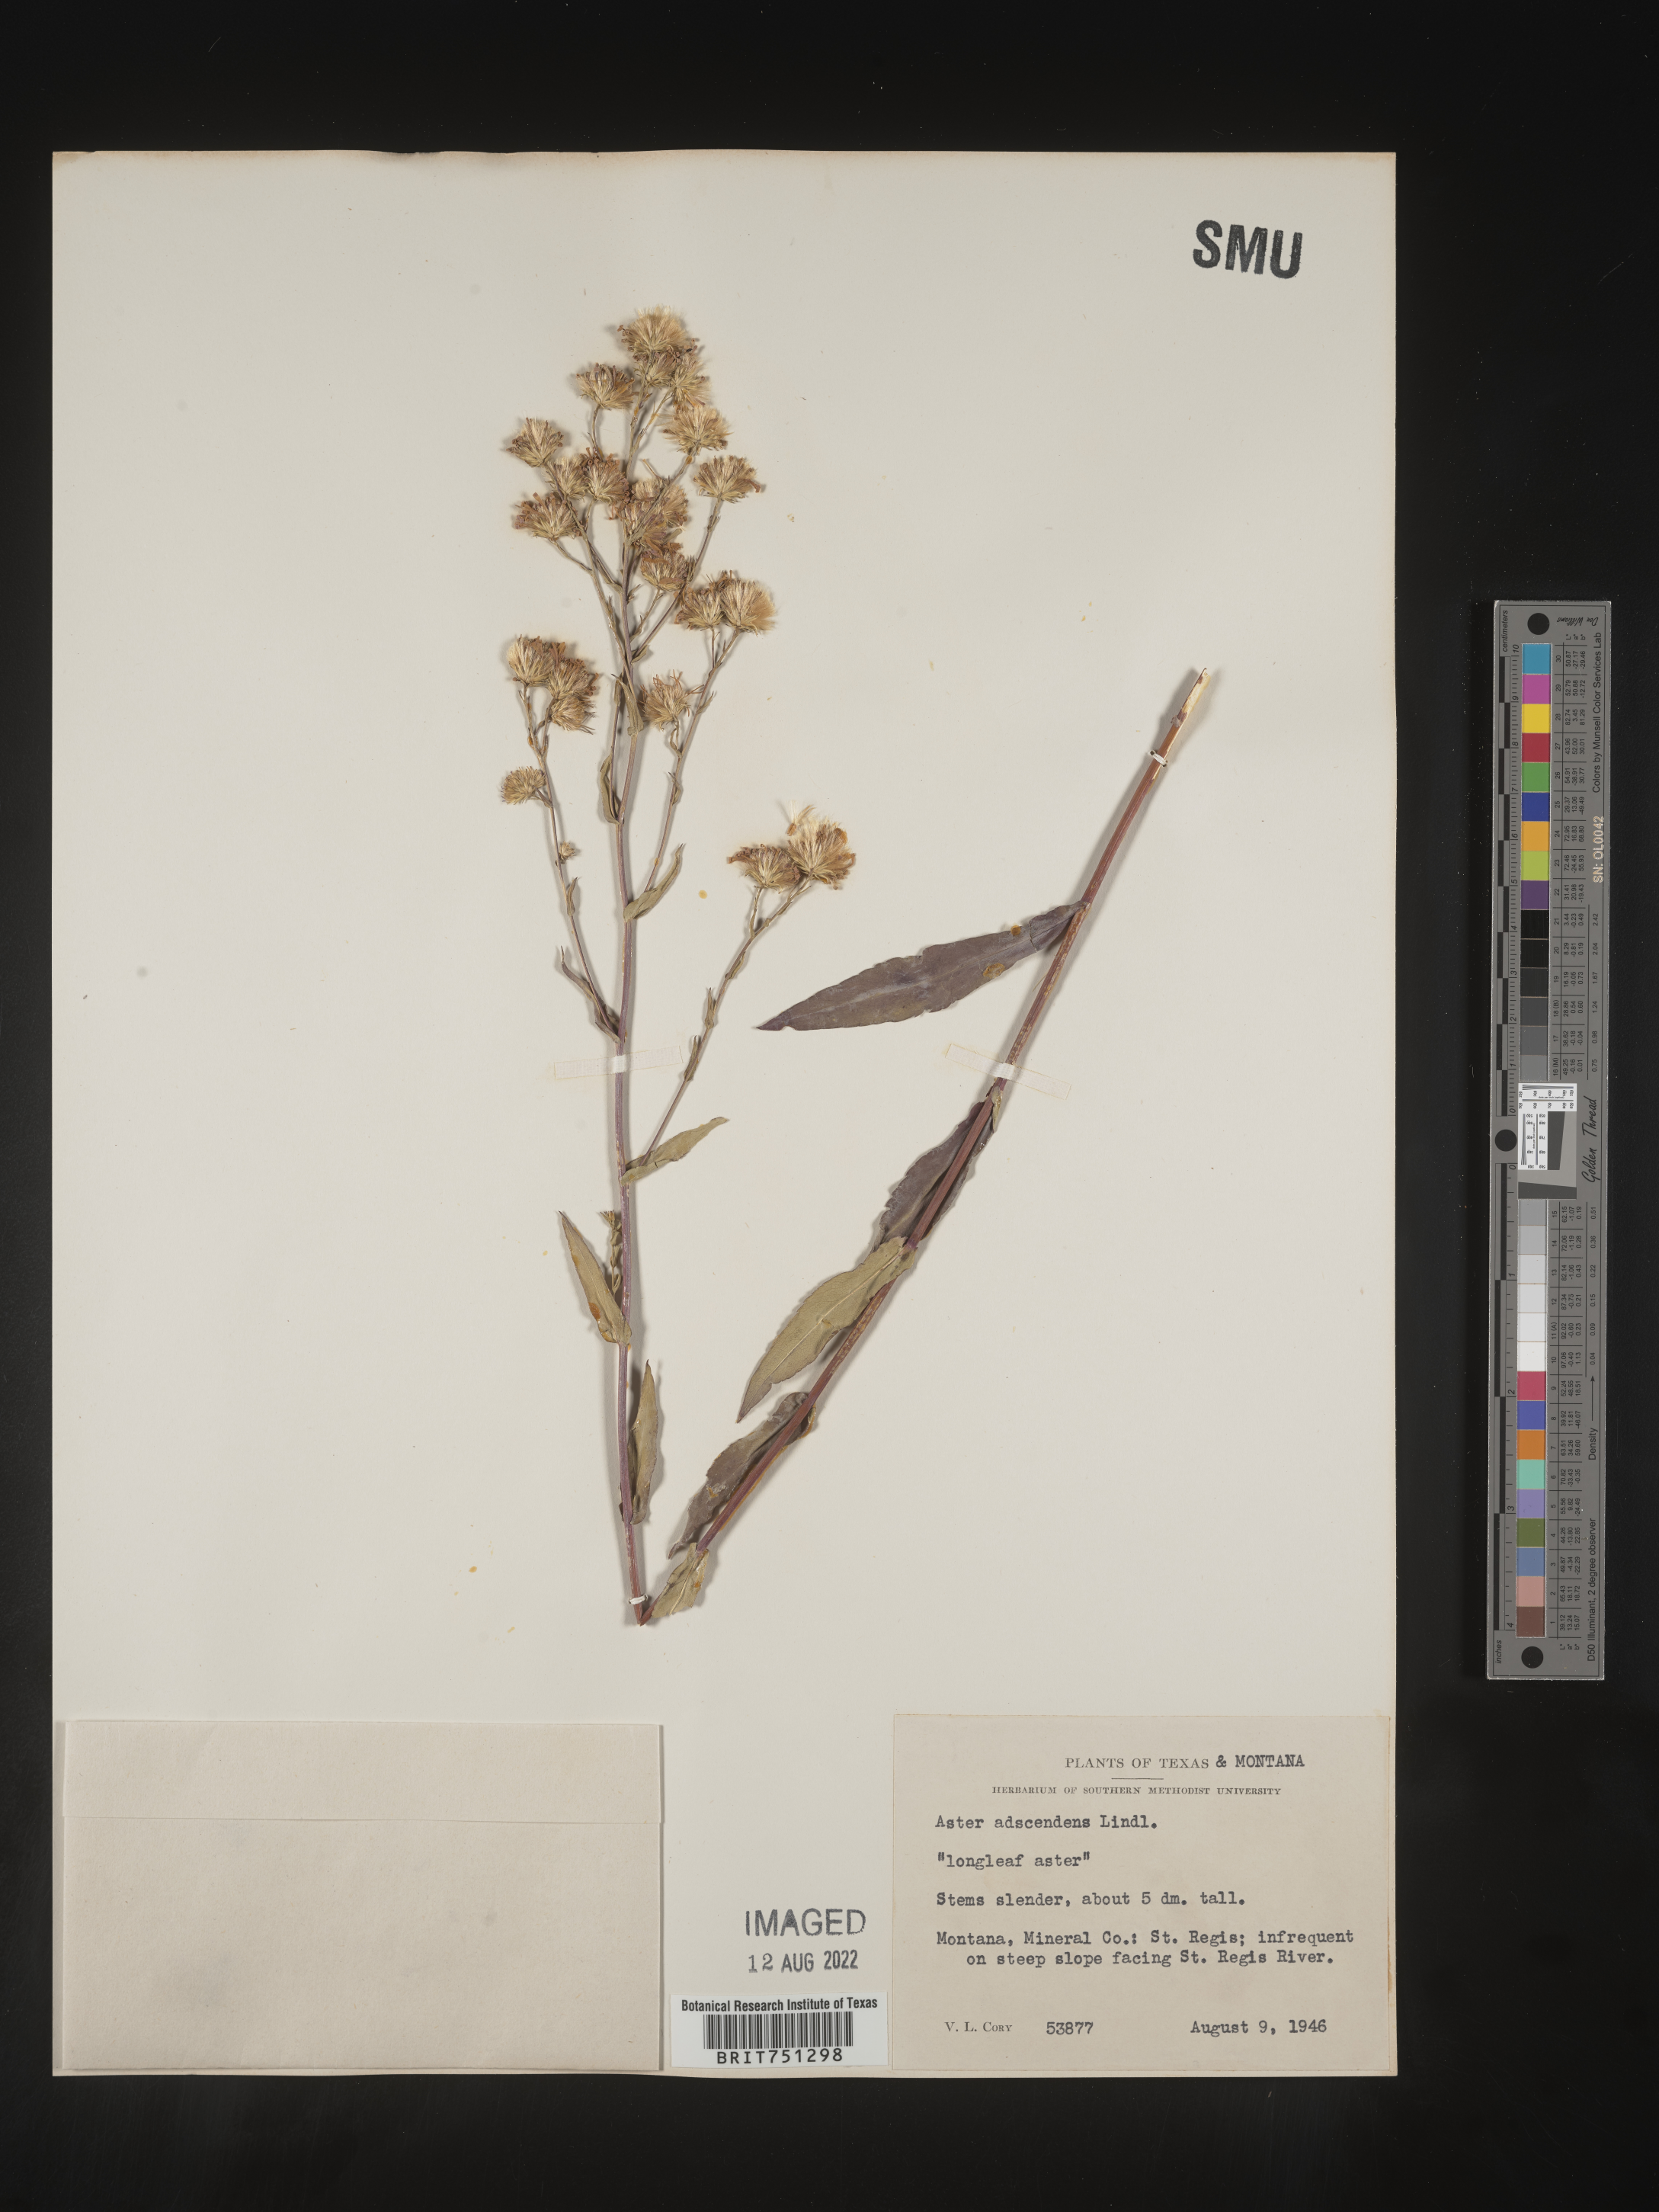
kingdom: Plantae
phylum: Tracheophyta
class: Magnoliopsida
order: Asterales
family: Asteraceae
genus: Symphyotrichum
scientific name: Symphyotrichum ascendens
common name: Intermountain aster
